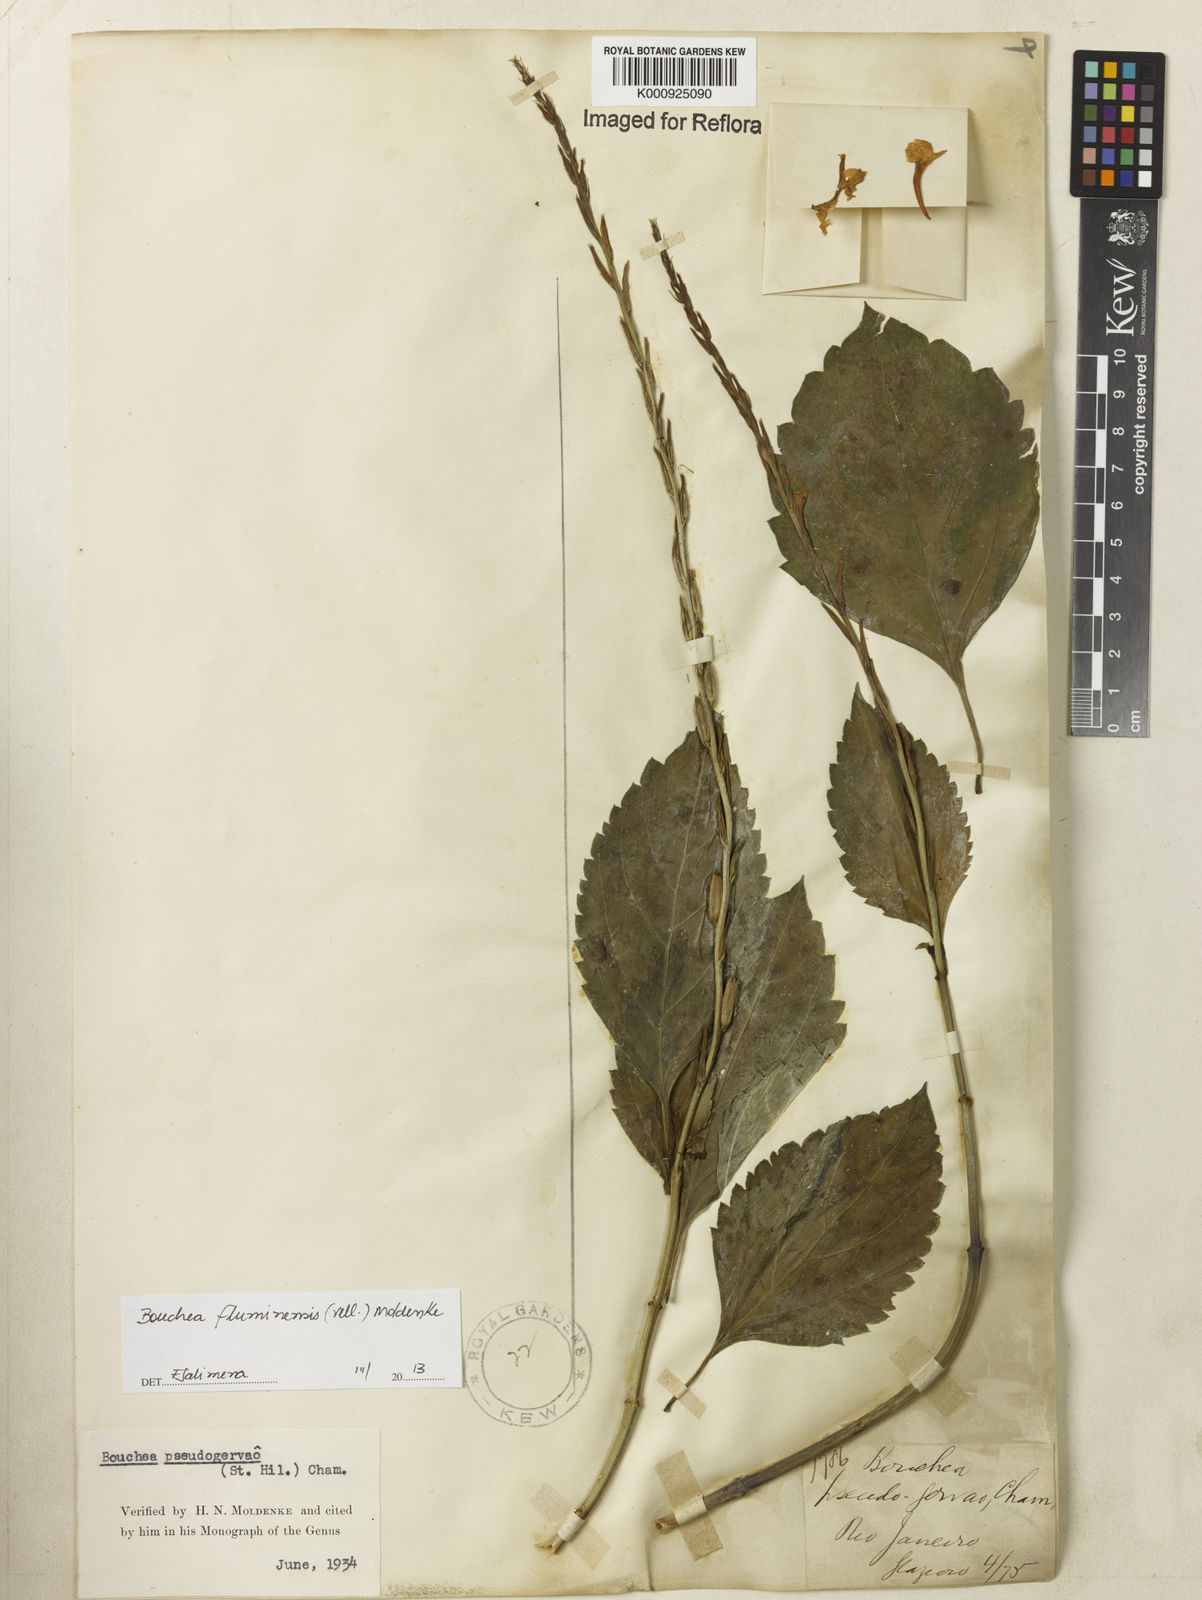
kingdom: Plantae
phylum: Tracheophyta
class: Magnoliopsida
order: Lamiales
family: Verbenaceae
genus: Bouchea
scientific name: Bouchea pseudogervao
